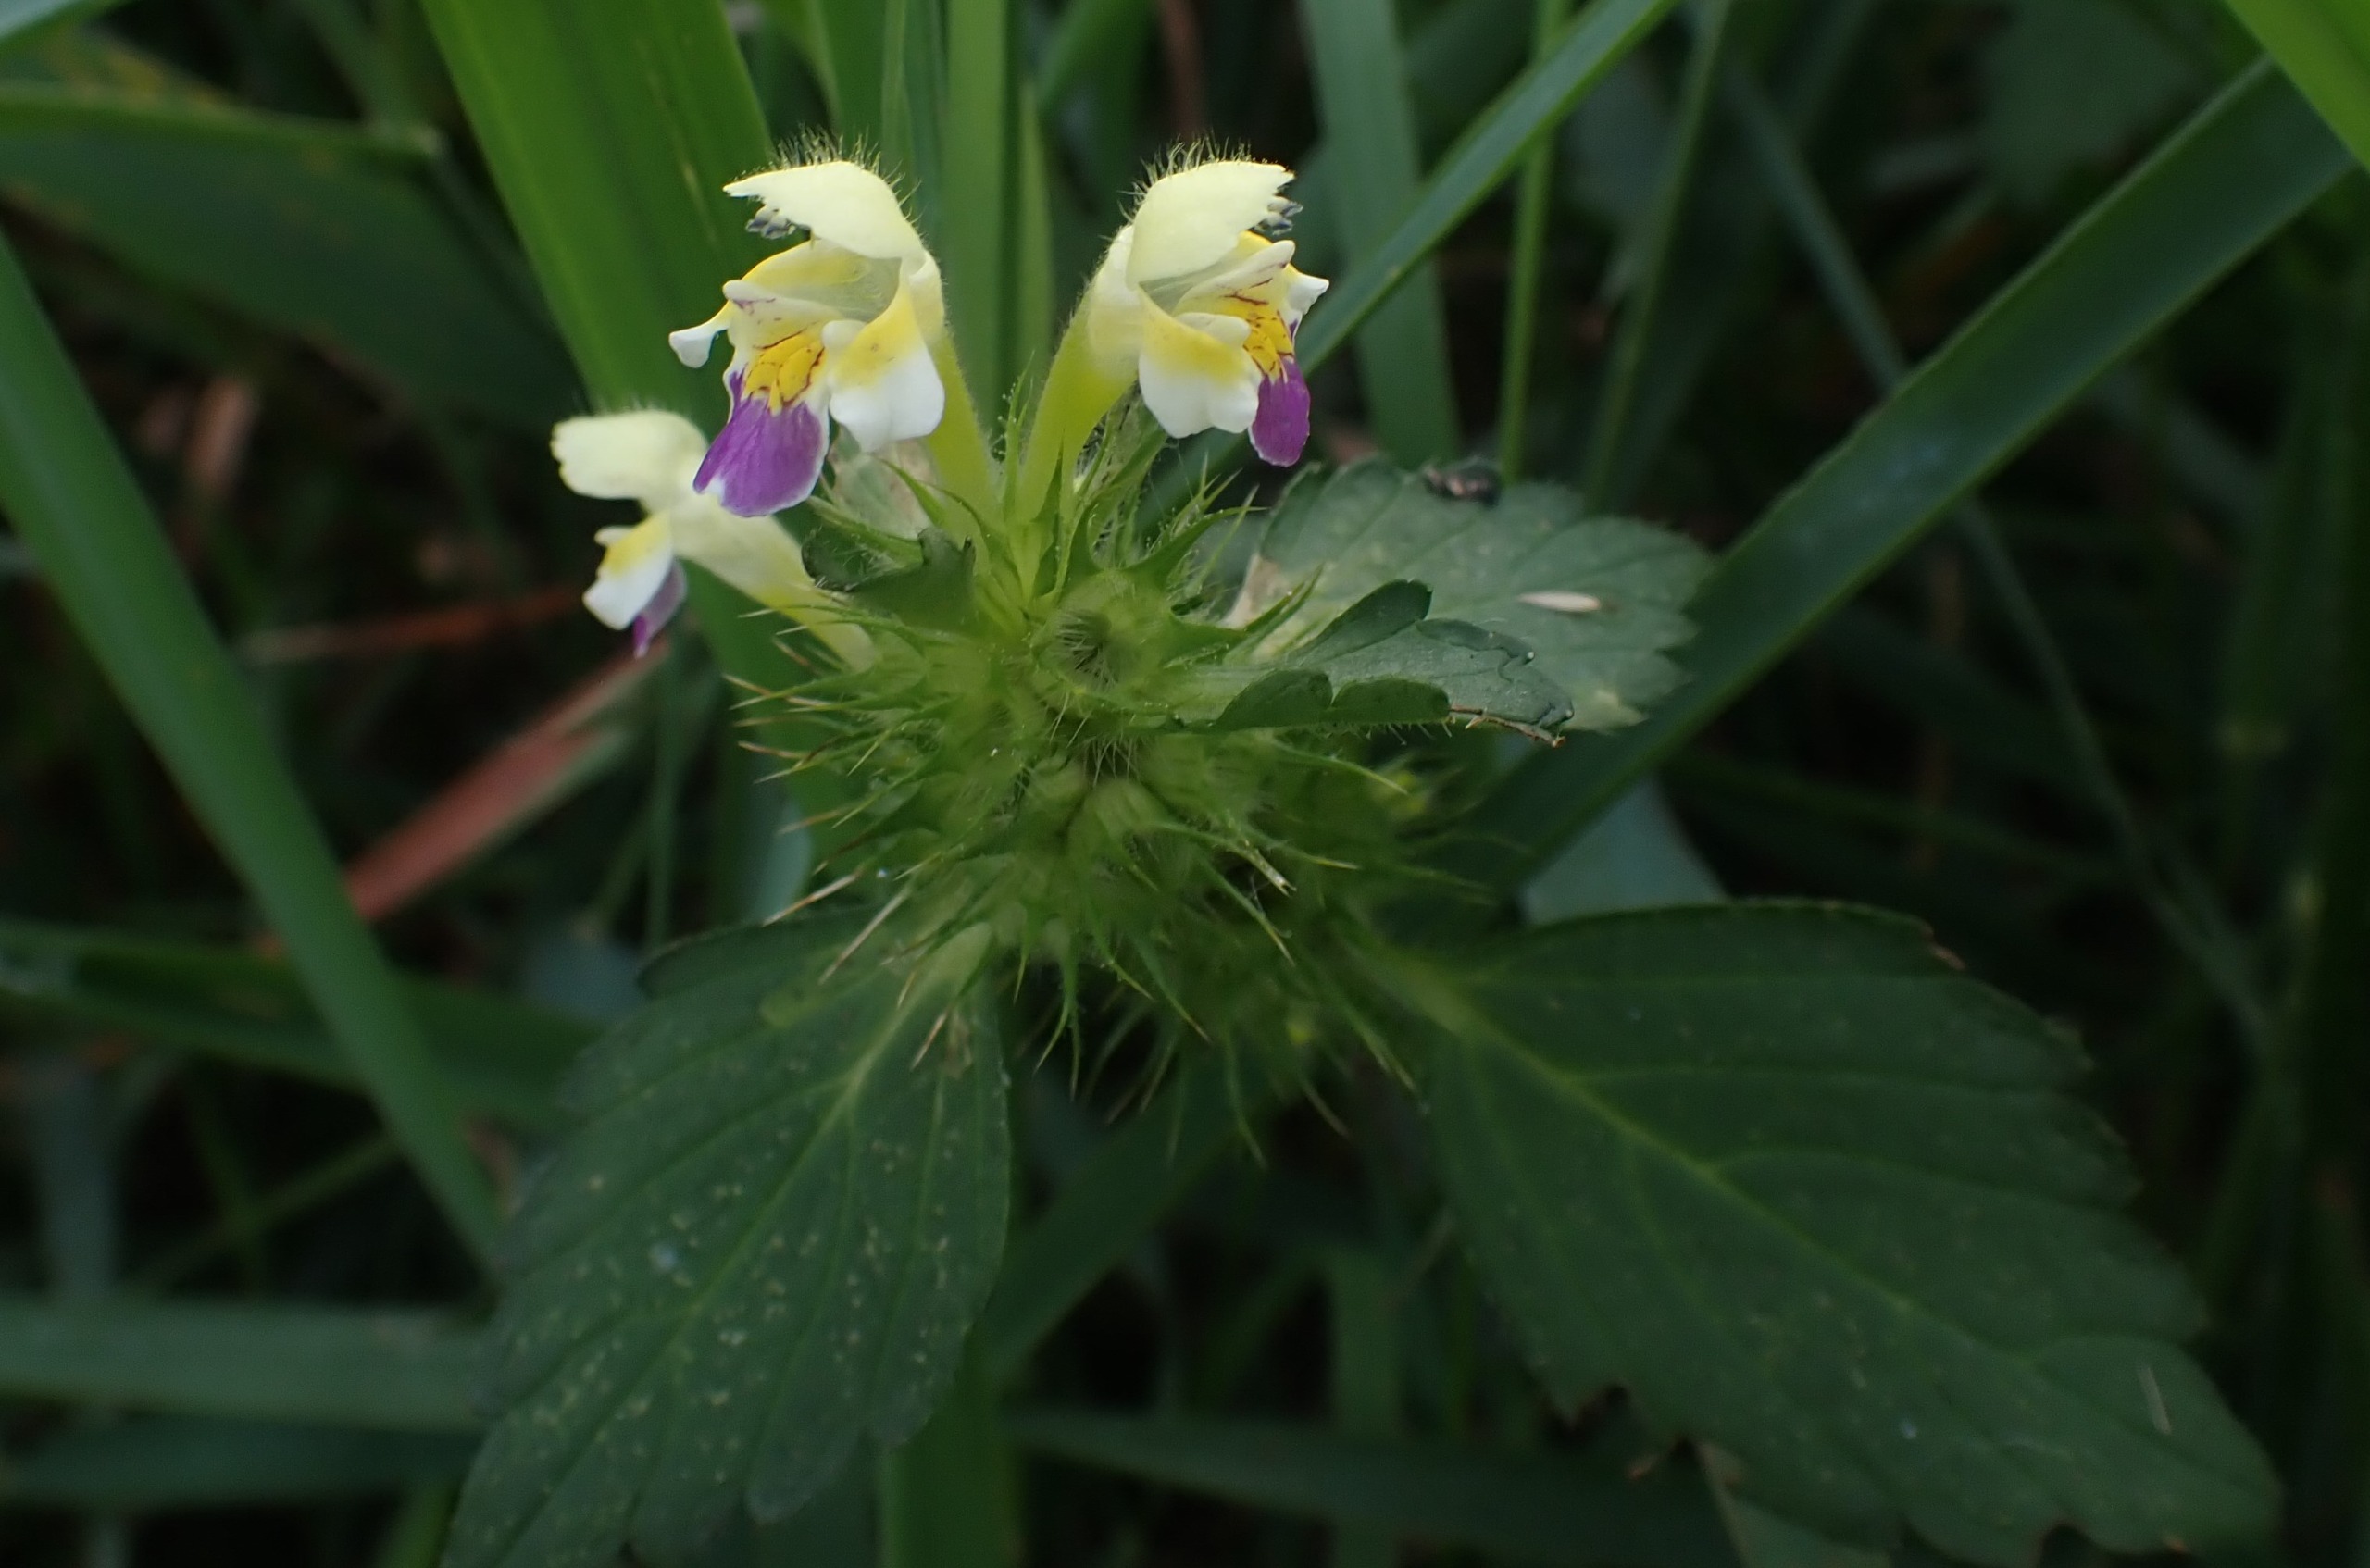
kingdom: Plantae
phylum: Tracheophyta
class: Magnoliopsida
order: Lamiales
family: Lamiaceae
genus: Galeopsis
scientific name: Galeopsis speciosa
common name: Hamp-hanekro
